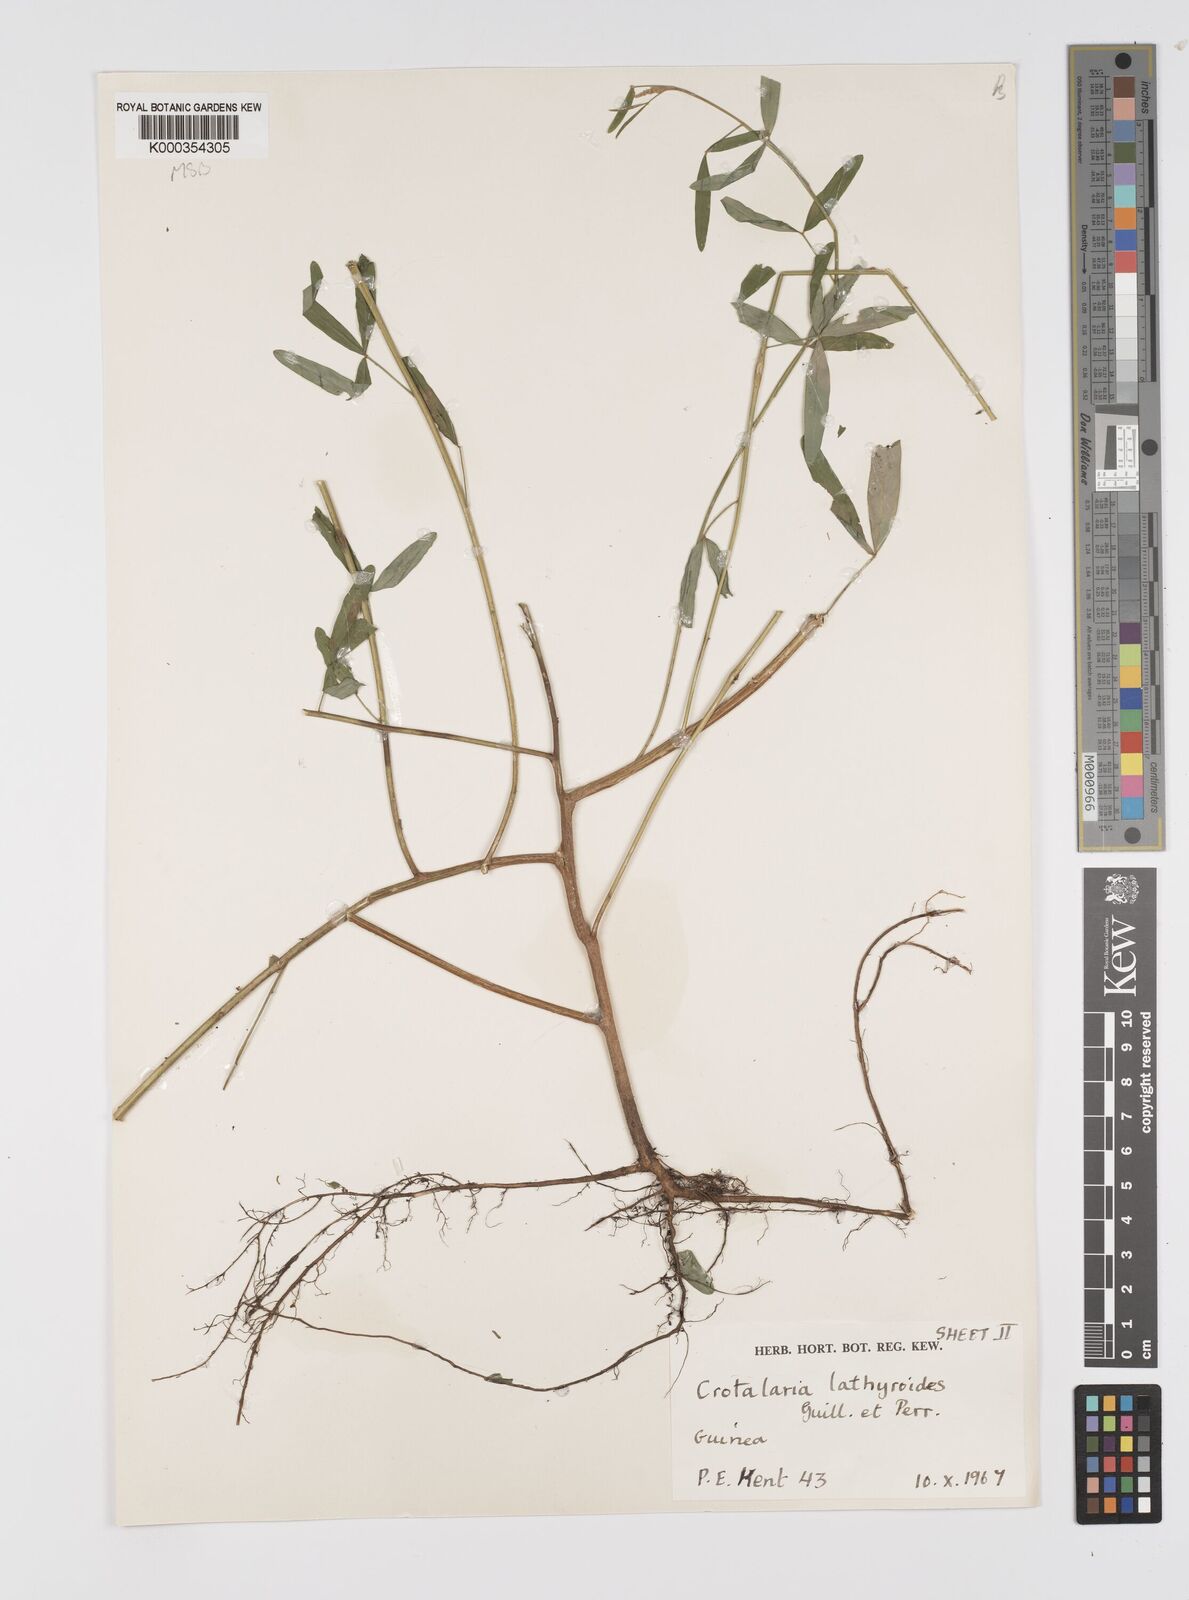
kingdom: Plantae
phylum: Tracheophyta
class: Magnoliopsida
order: Fabales
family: Fabaceae
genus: Crotalaria
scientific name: Crotalaria lathyroides
